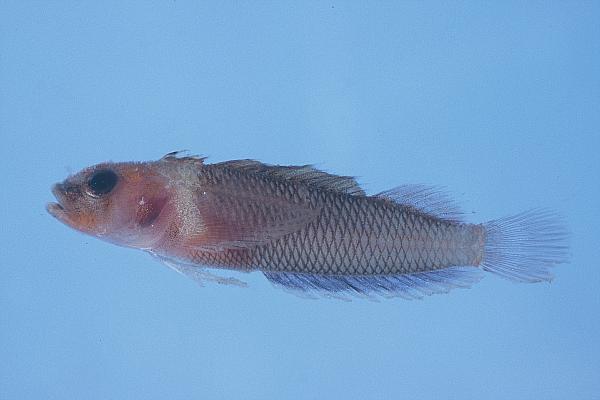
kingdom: Animalia
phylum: Chordata
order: Perciformes
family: Tripterygiidae
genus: Acanthanectes
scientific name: Acanthanectes rufus
